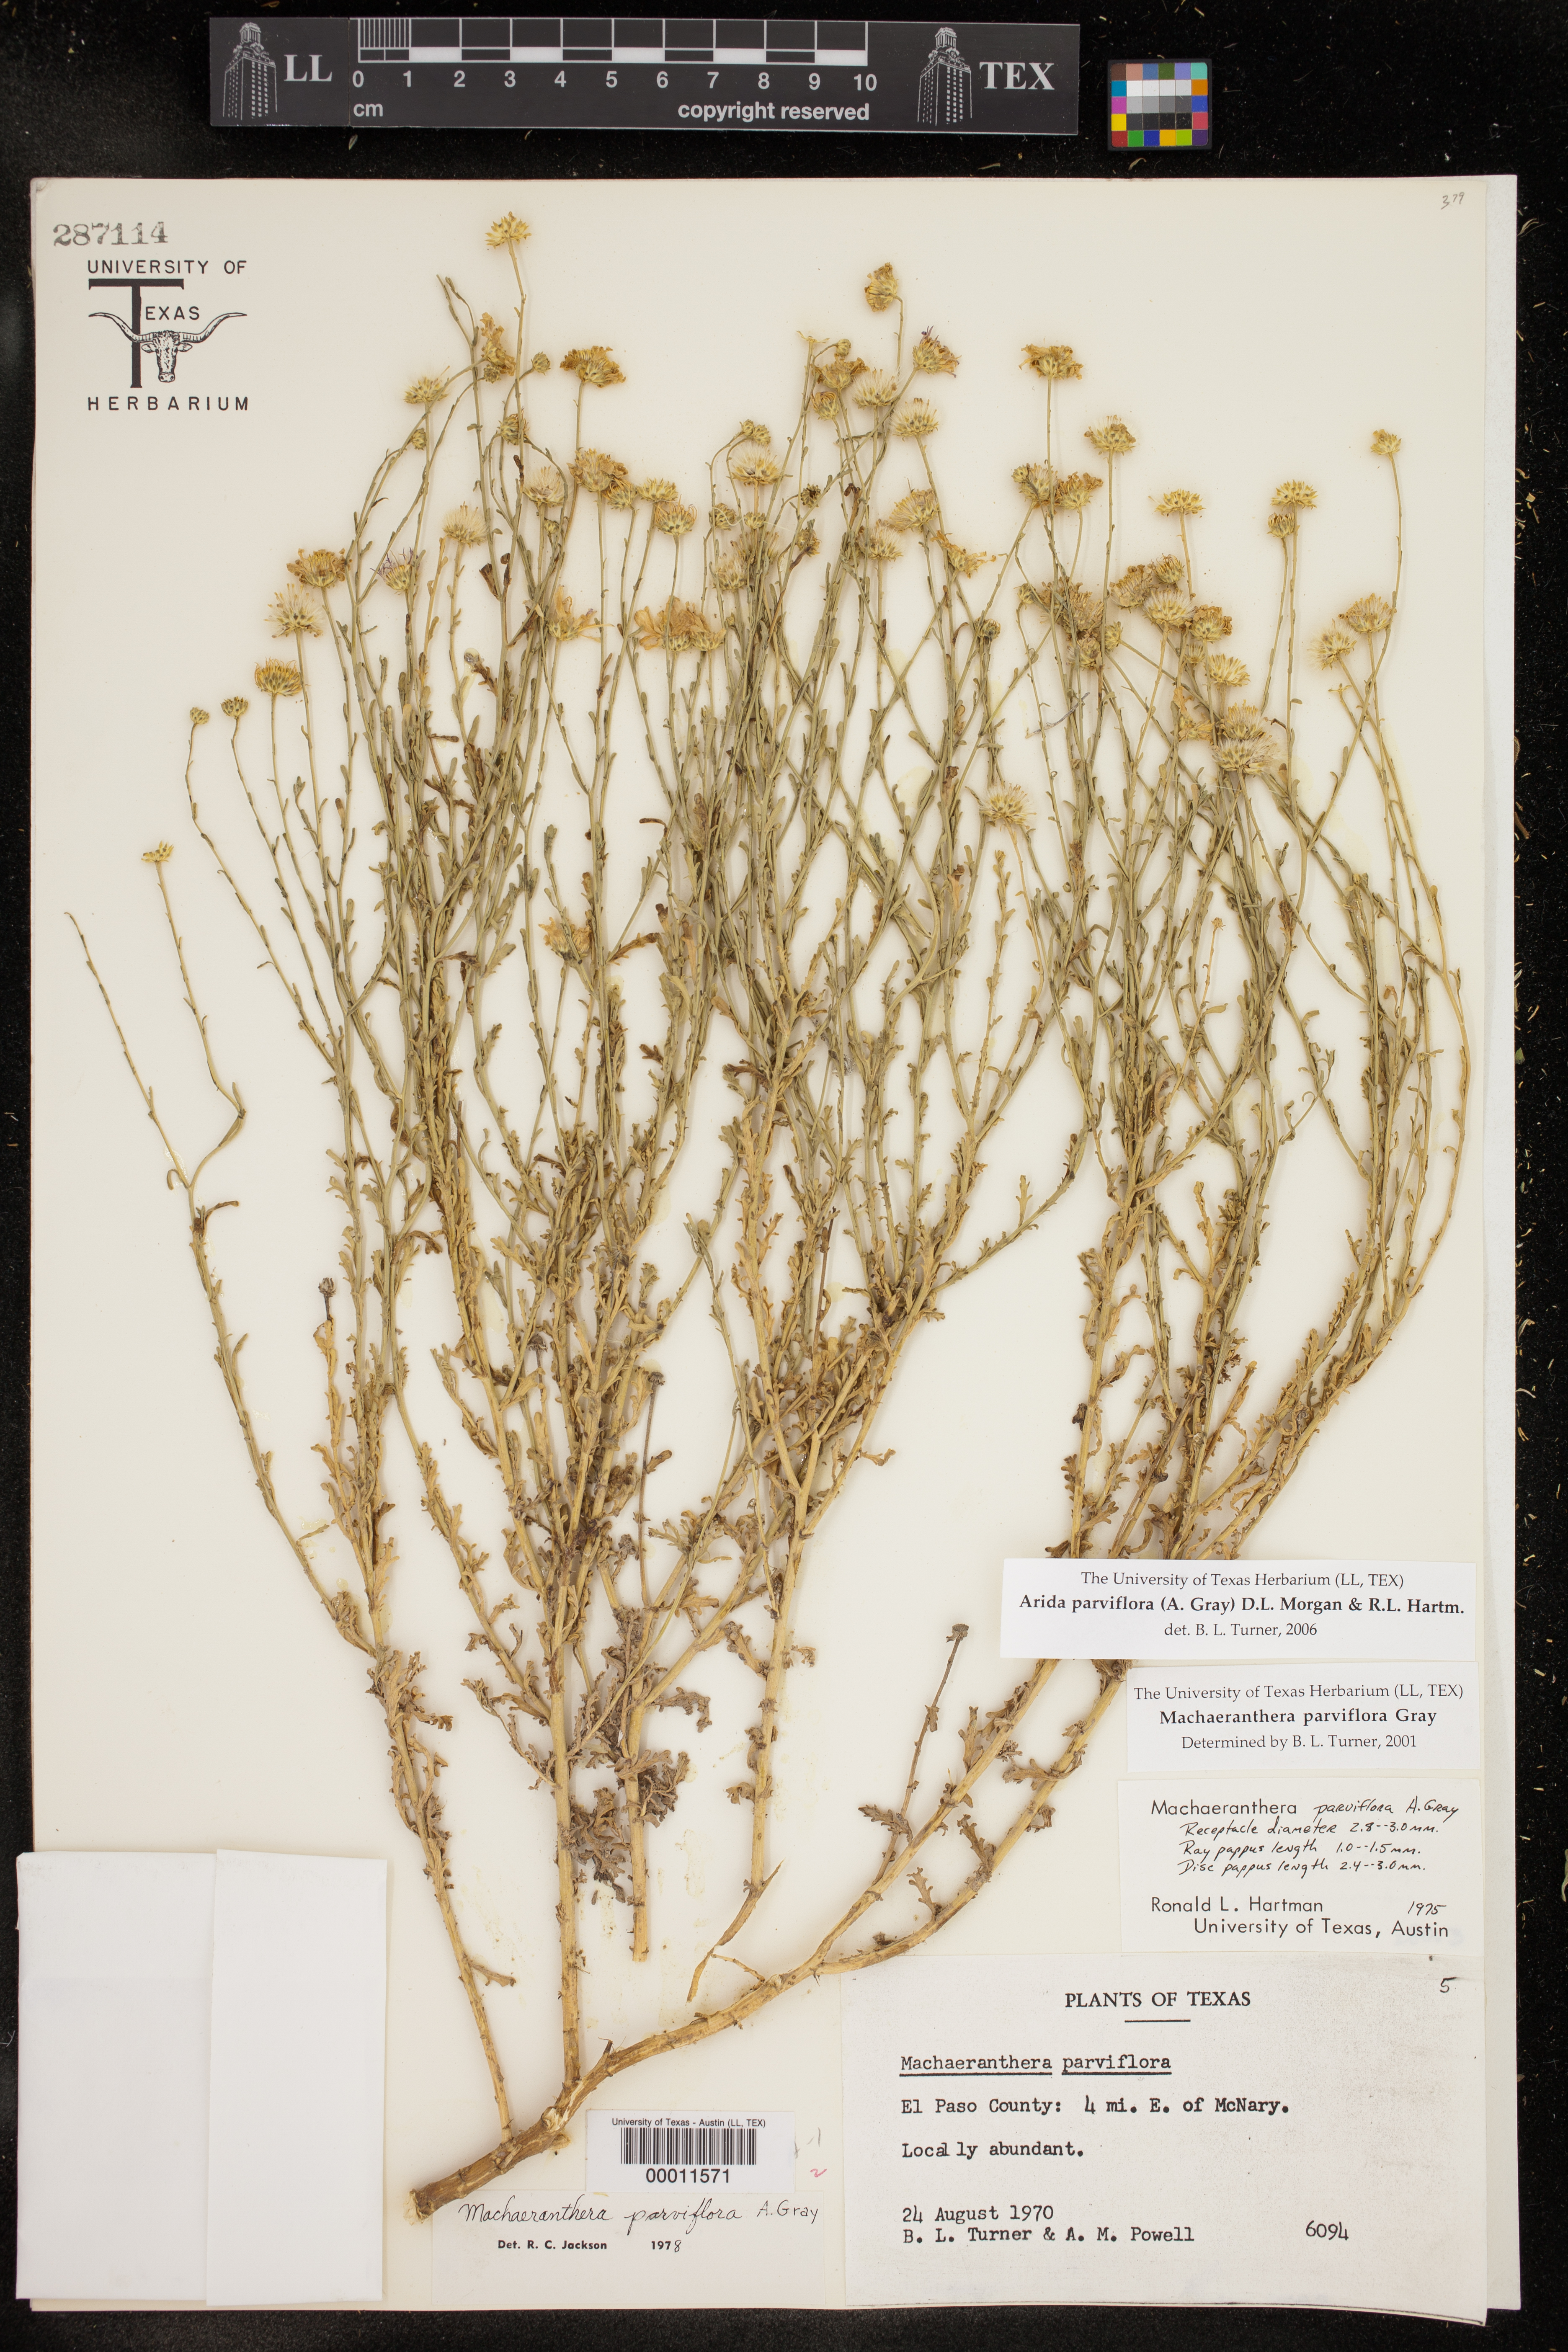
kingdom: Plantae
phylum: Tracheophyta
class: Magnoliopsida
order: Asterales
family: Asteraceae
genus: Leucosyris
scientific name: Leucosyris parviflora
